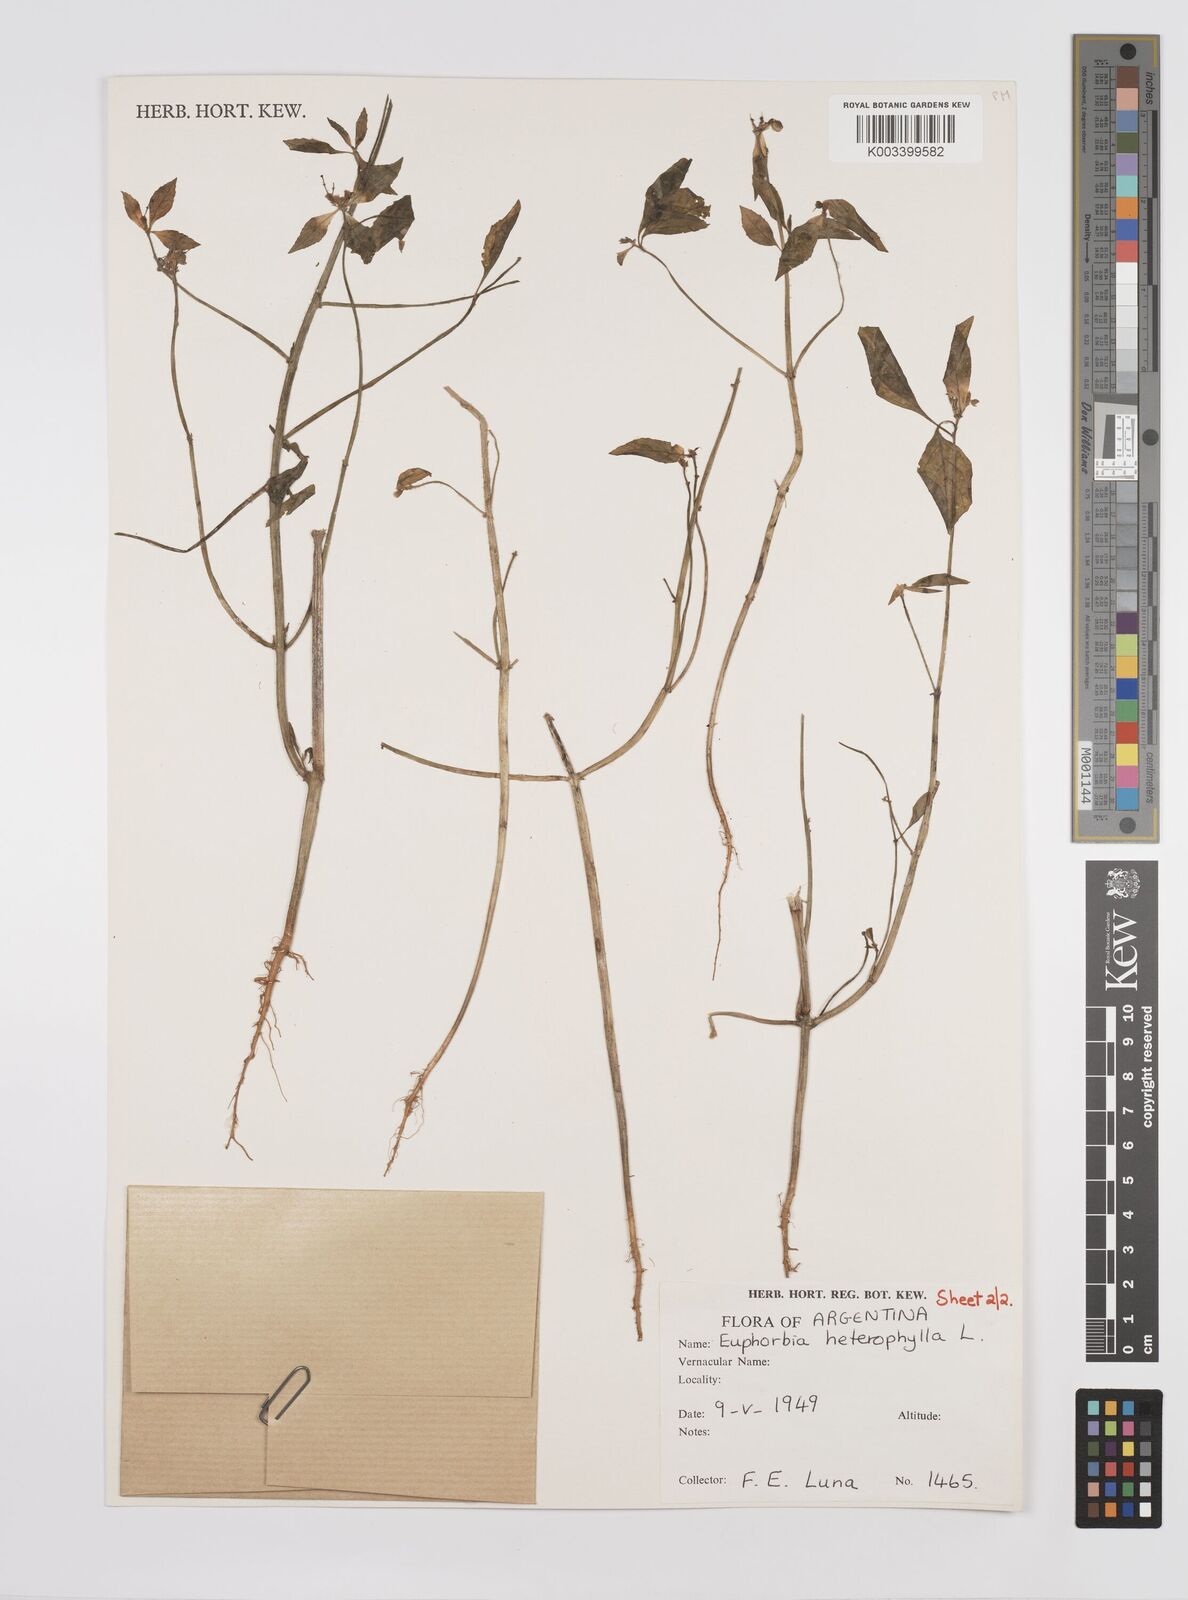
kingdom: Plantae
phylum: Tracheophyta
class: Magnoliopsida
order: Malpighiales
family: Euphorbiaceae
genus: Euphorbia
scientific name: Euphorbia
